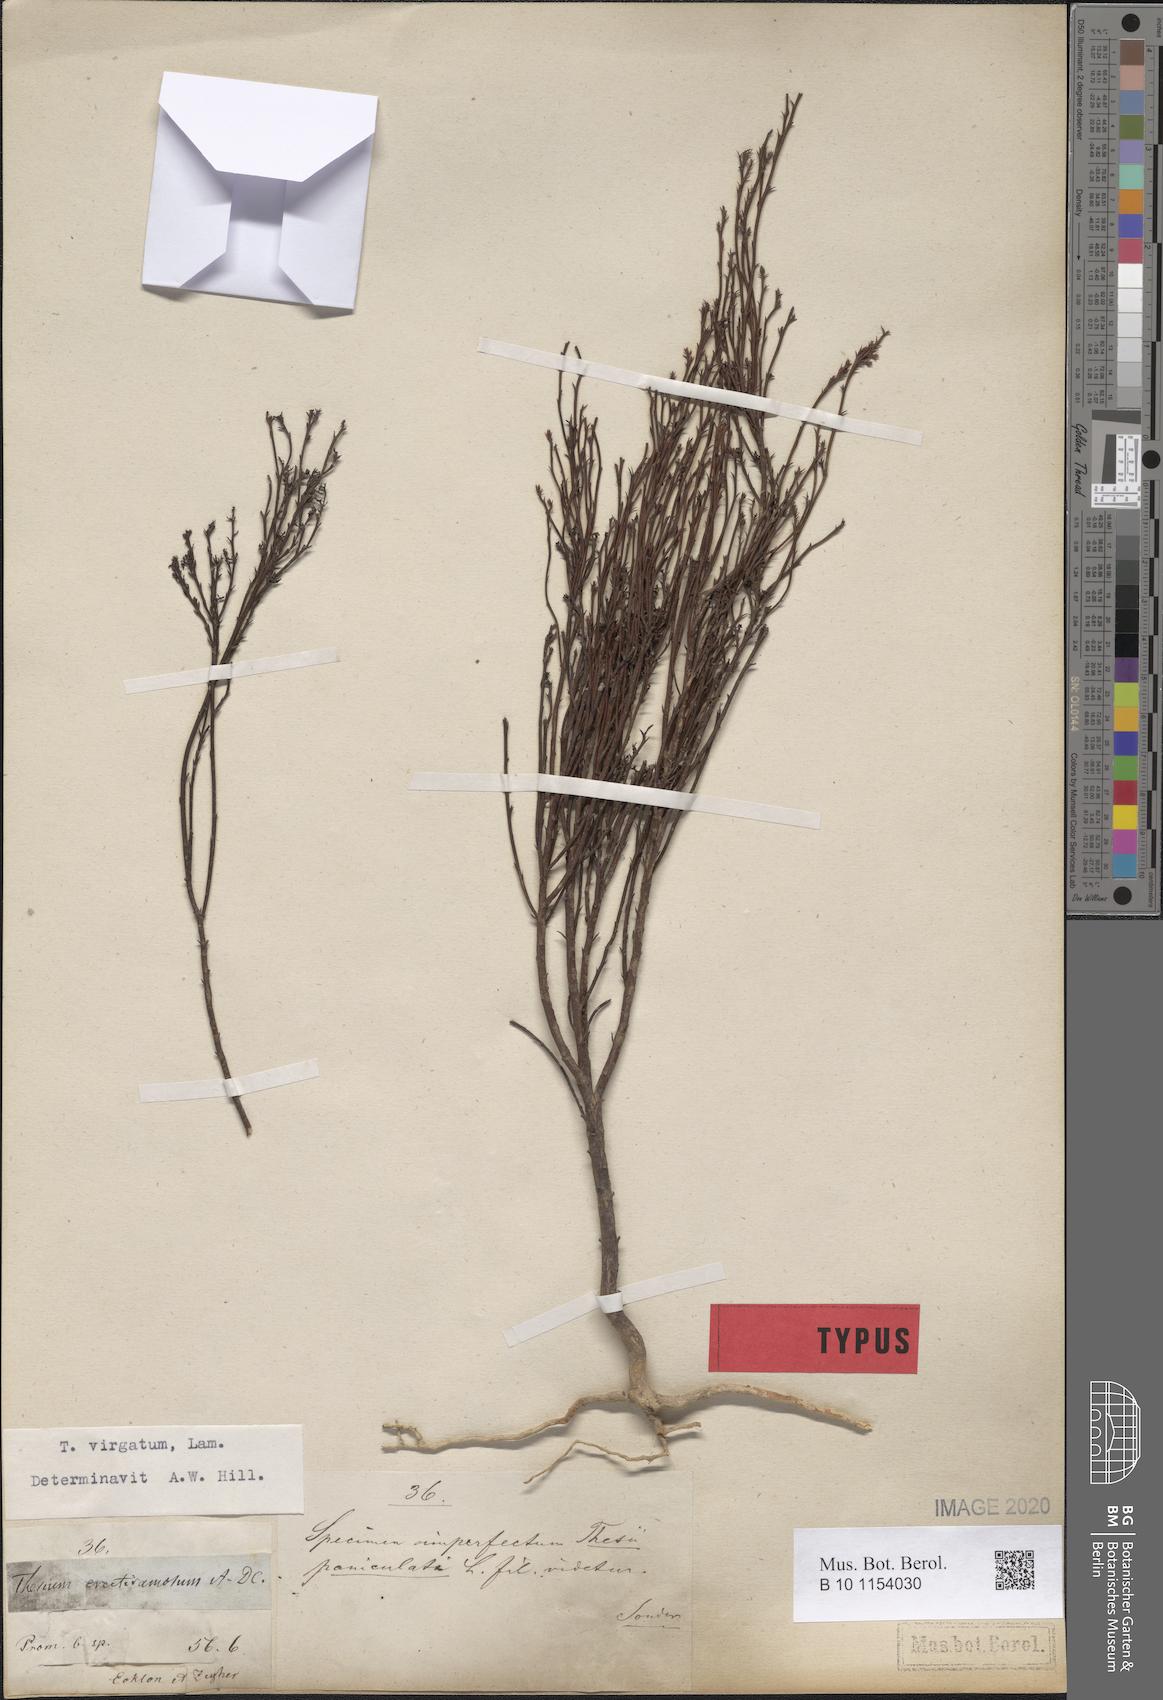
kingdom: Plantae
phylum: Tracheophyta
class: Magnoliopsida
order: Santalales
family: Thesiaceae
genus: Thesium
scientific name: Thesium virgatum
